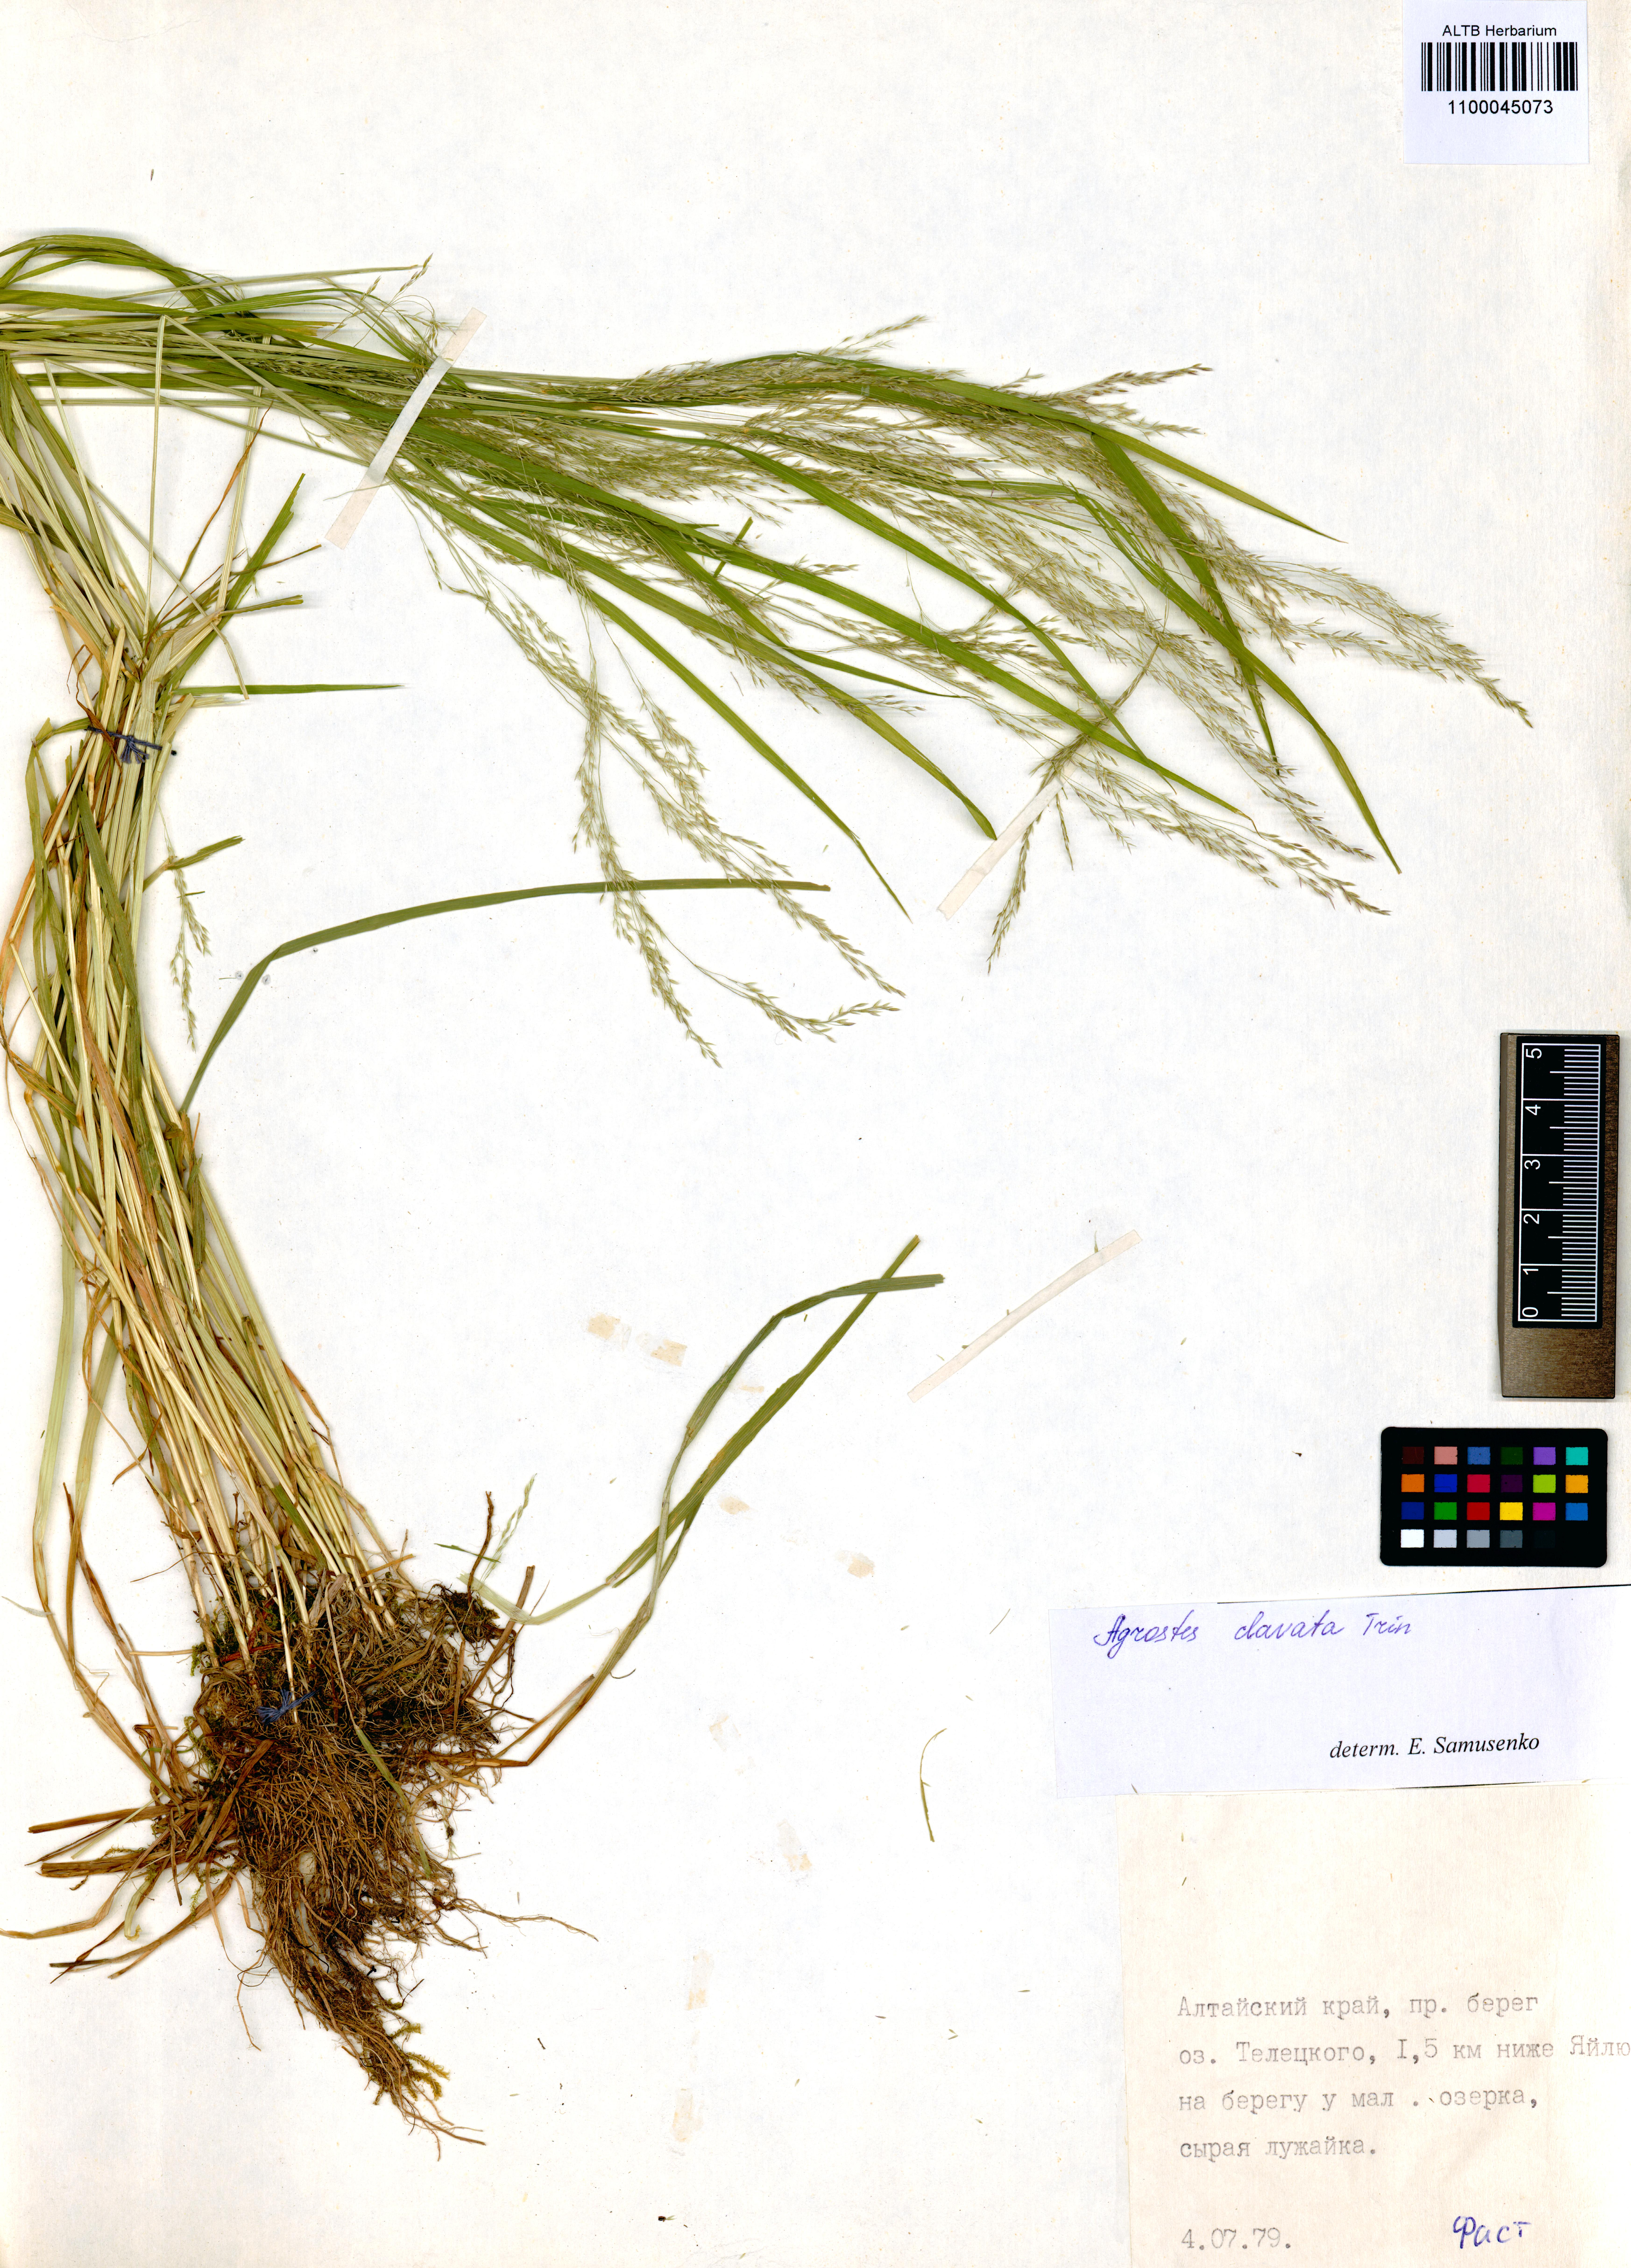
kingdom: Plantae
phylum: Tracheophyta
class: Liliopsida
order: Poales
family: Poaceae
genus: Agrostis
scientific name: Agrostis clavata
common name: Clavate bent
